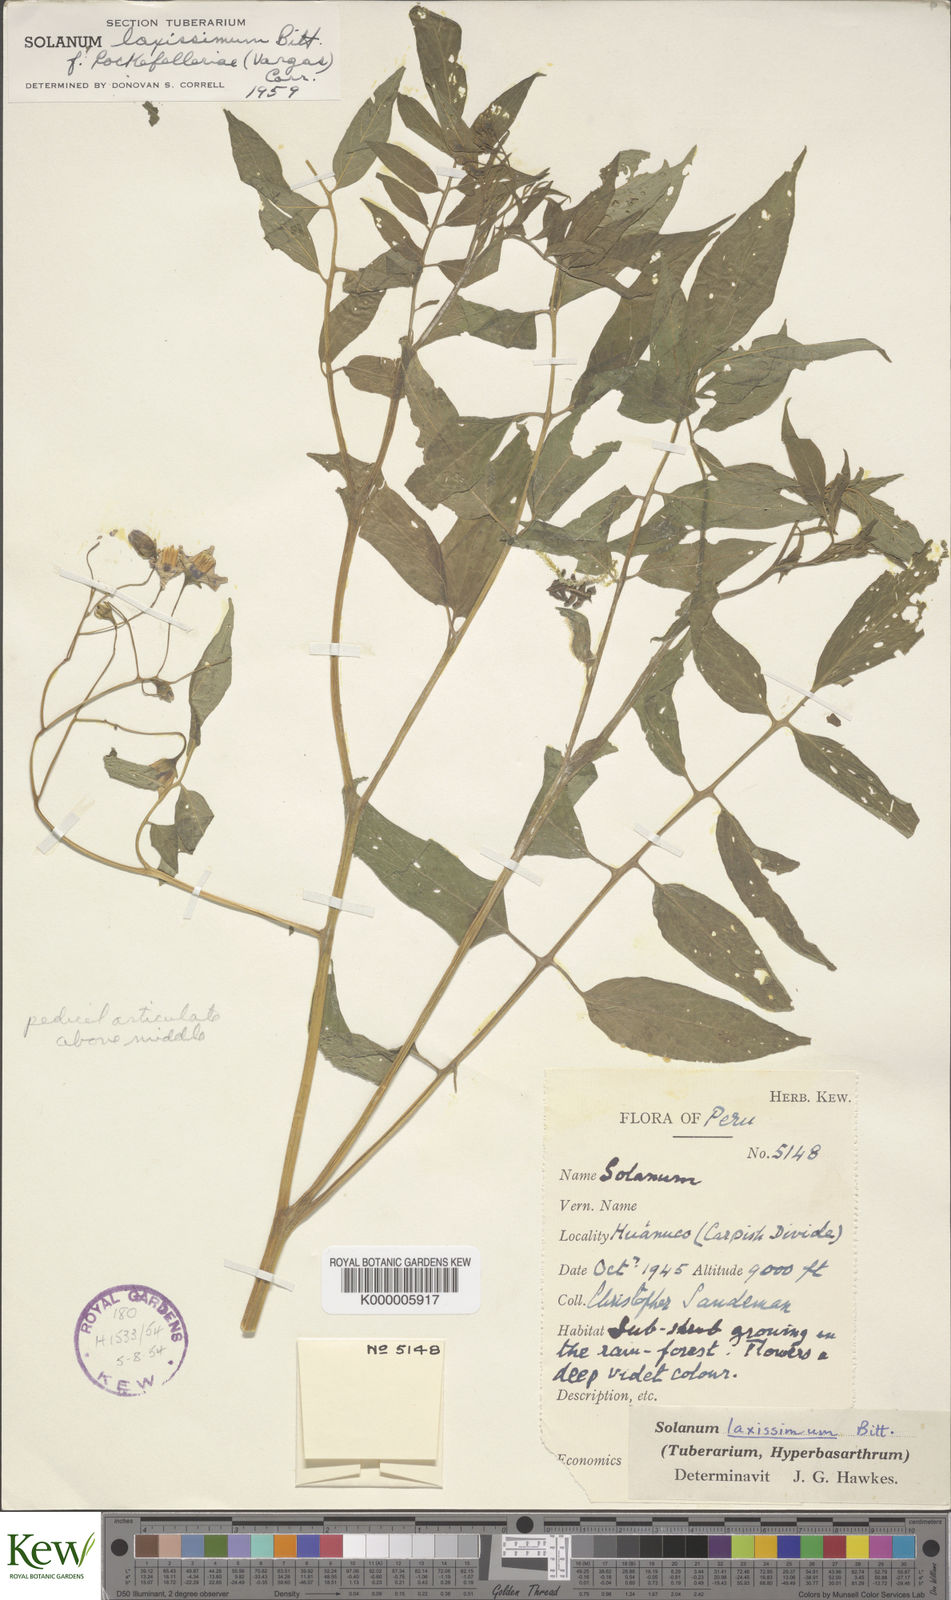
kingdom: Plantae
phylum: Tracheophyta
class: Magnoliopsida
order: Solanales
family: Solanaceae
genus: Solanum
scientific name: Solanum laxissimum
